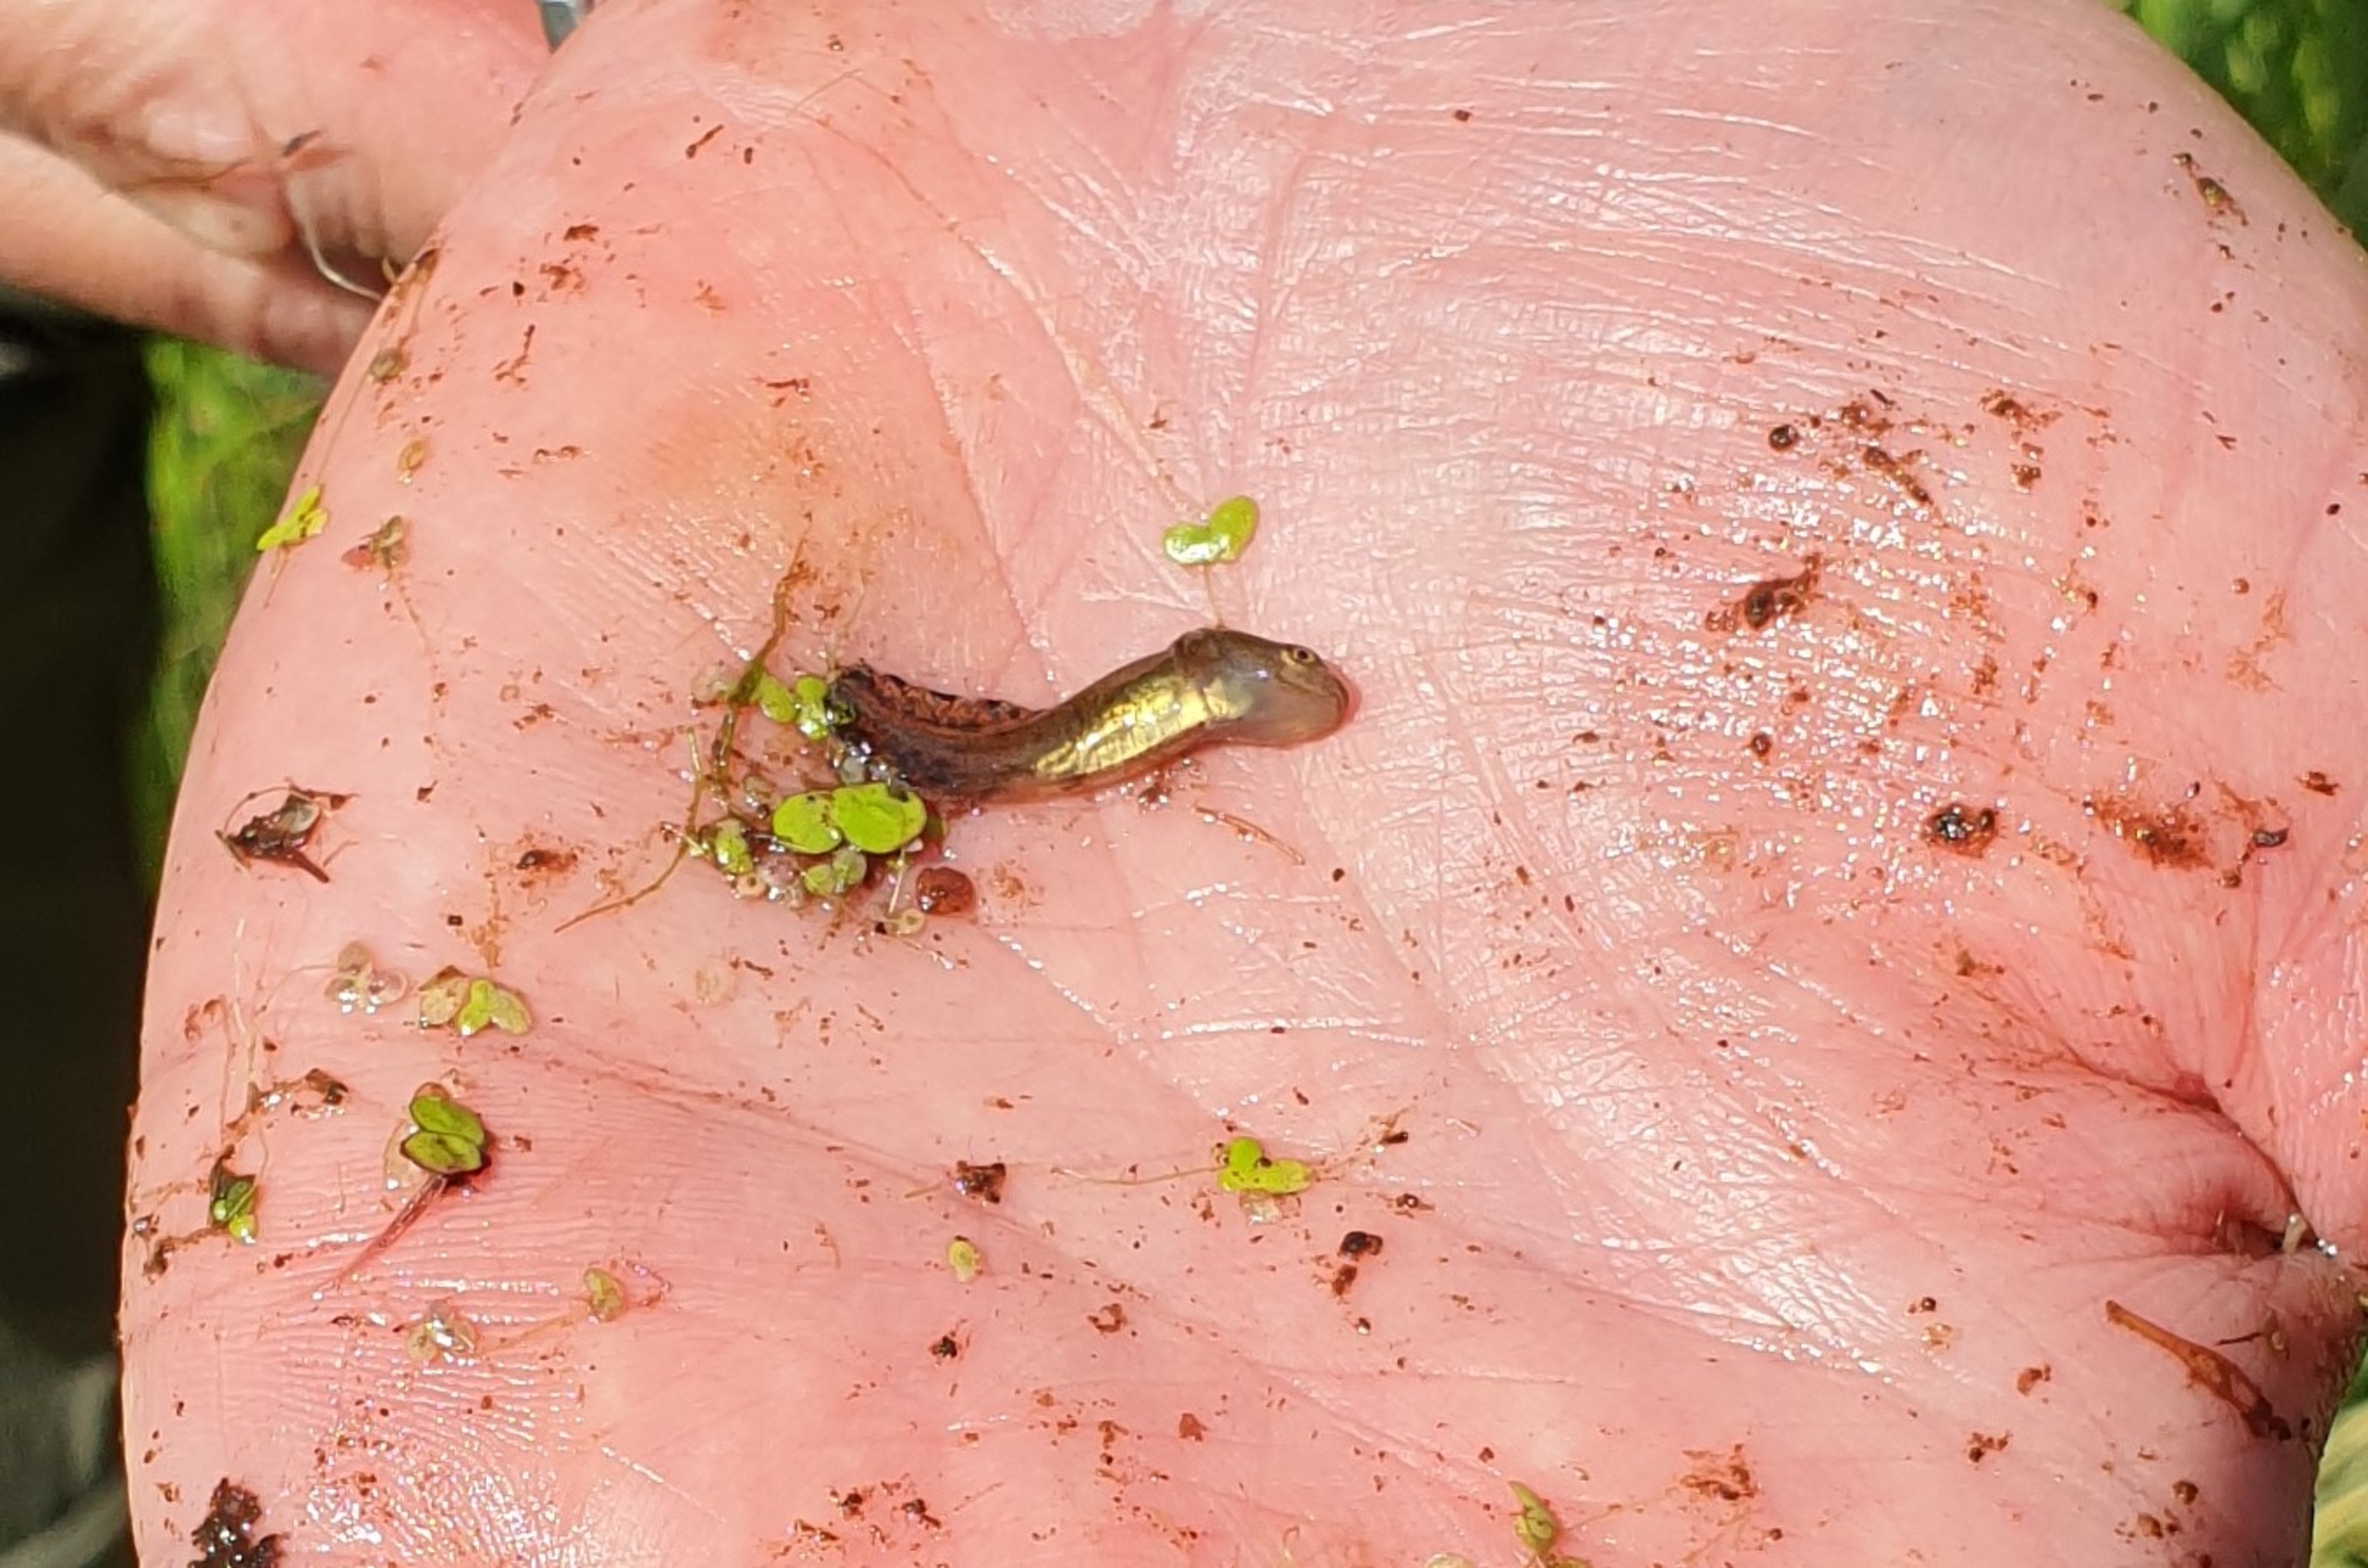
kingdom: Animalia
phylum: Chordata
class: Amphibia
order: Caudata
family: Salamandridae
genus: Triturus
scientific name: Triturus cristatus
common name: Stor vandsalamander
